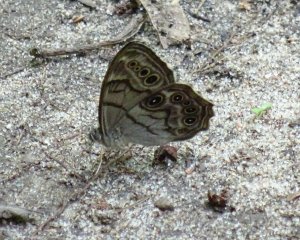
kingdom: Animalia
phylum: Arthropoda
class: Insecta
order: Lepidoptera
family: Nymphalidae
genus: Lethe
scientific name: Lethe anthedon
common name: Northern Pearly-Eye
